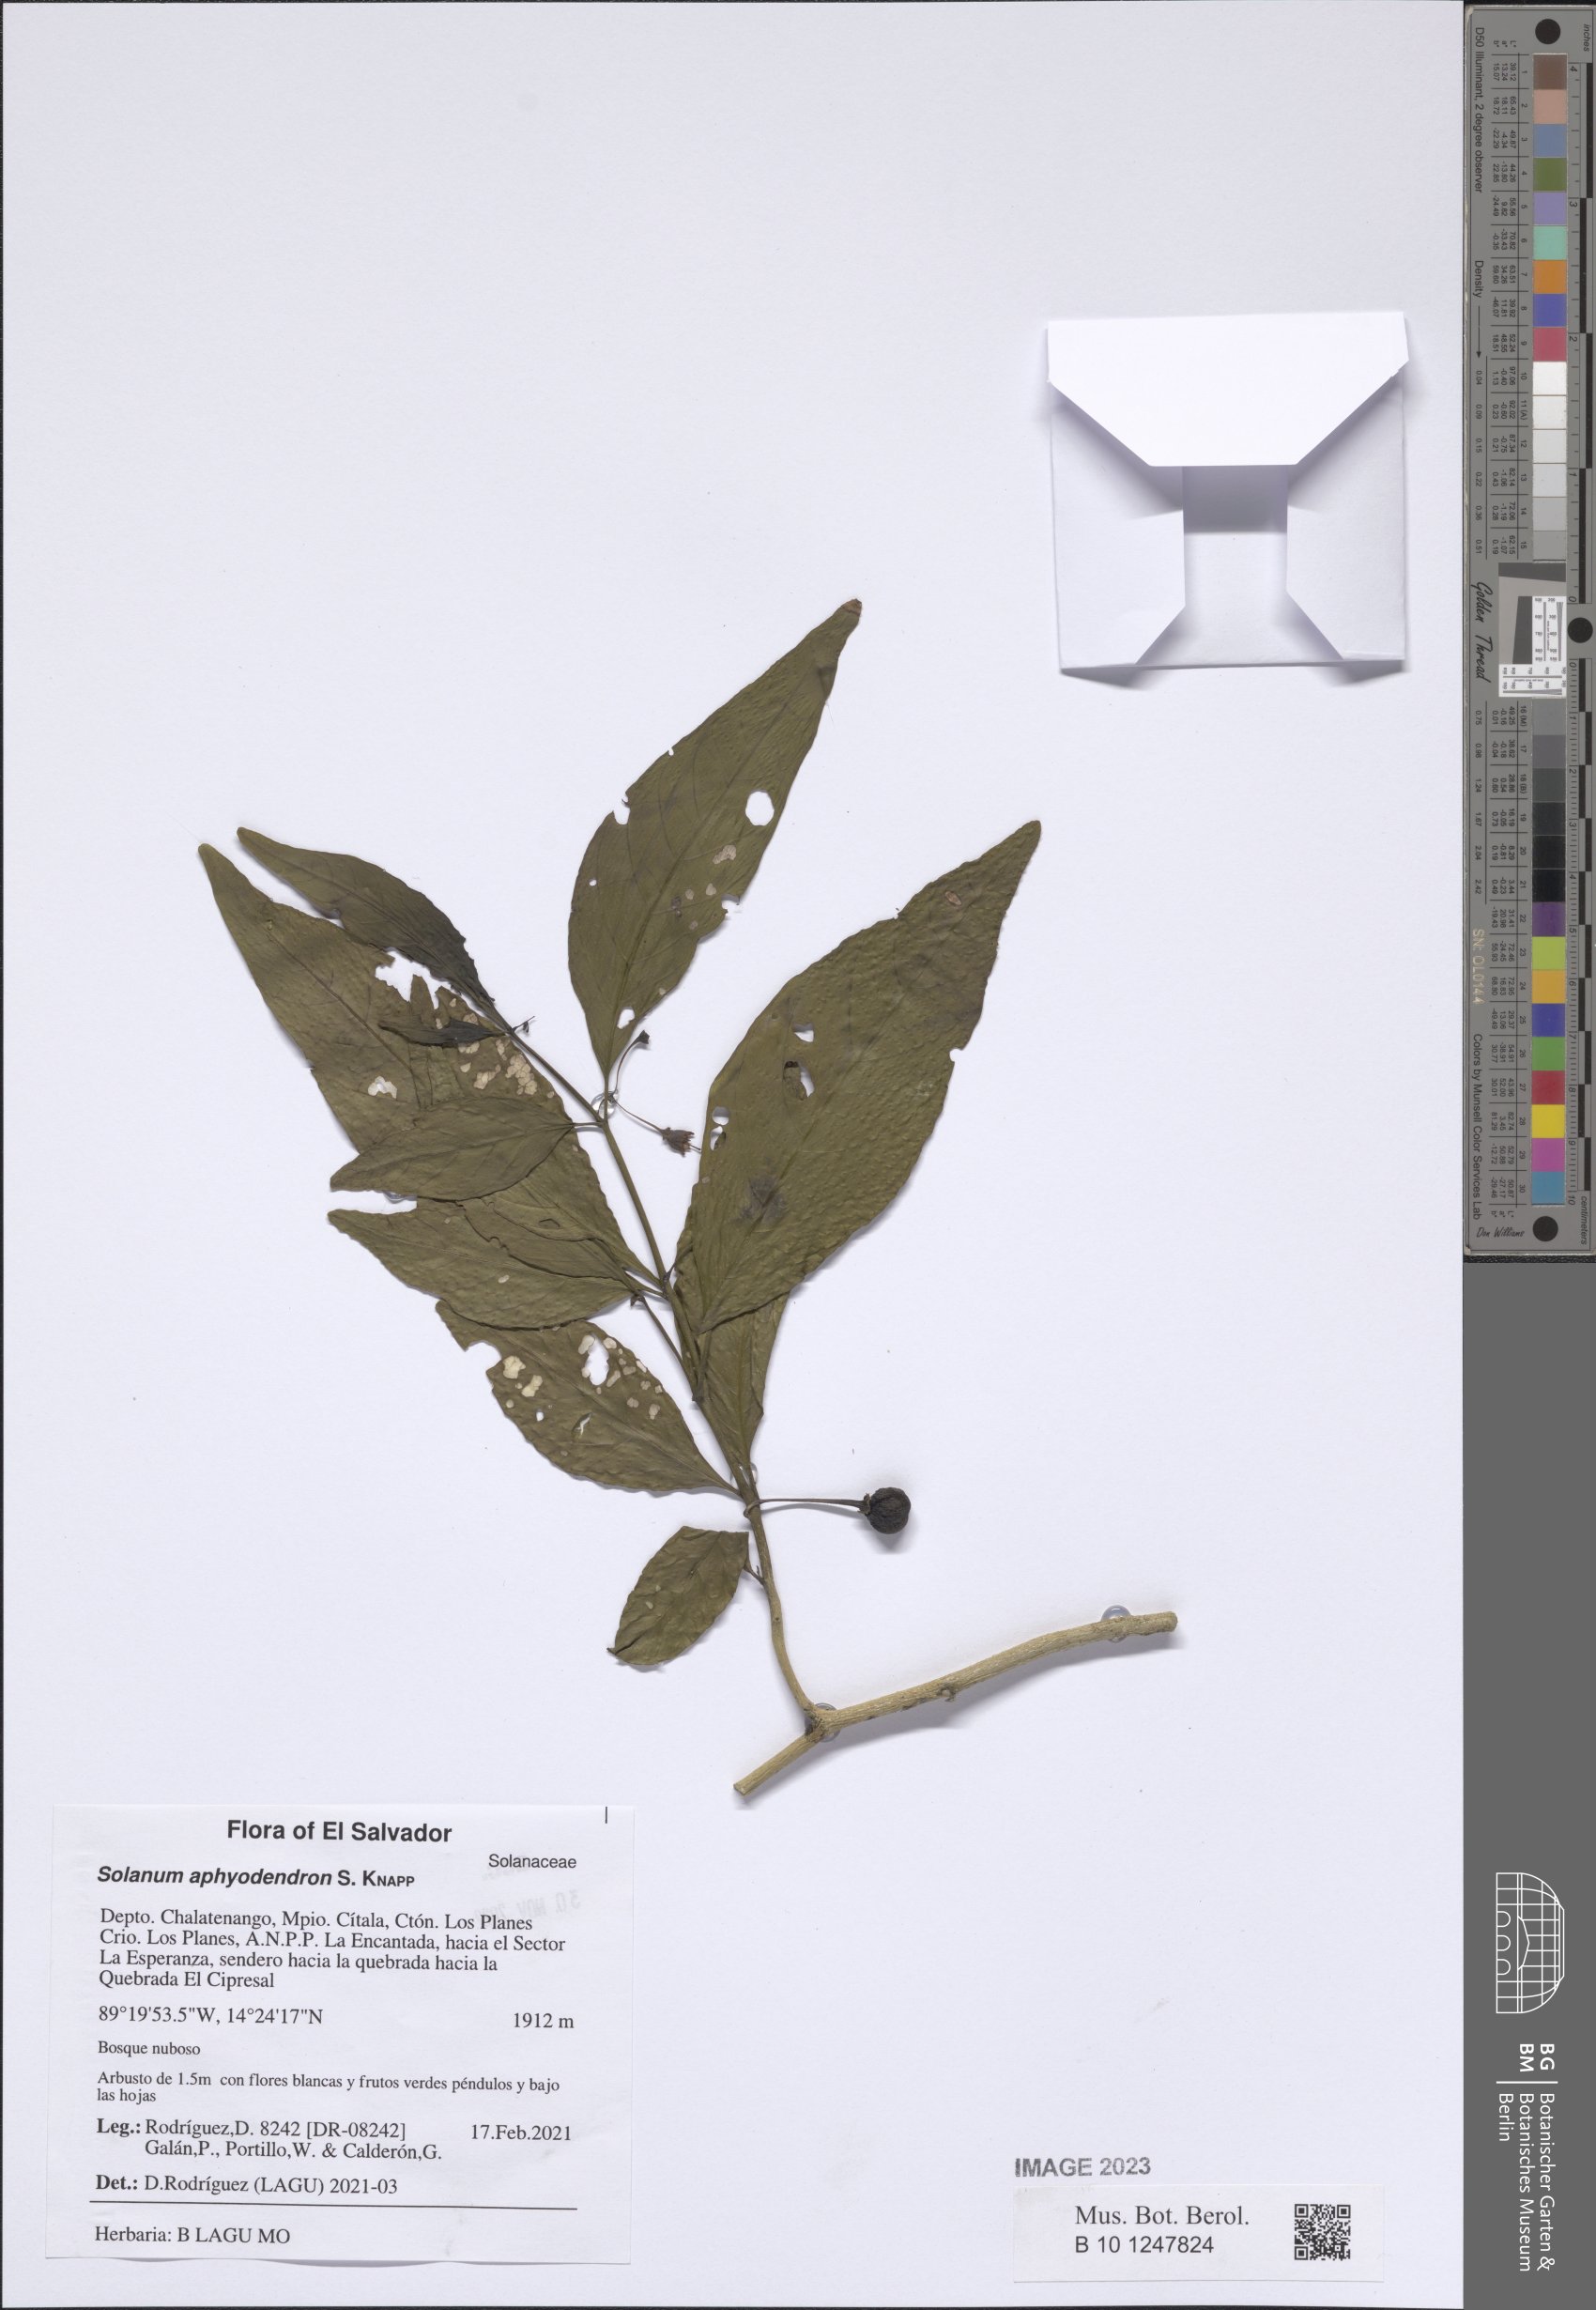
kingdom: Plantae
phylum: Tracheophyta
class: Magnoliopsida
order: Solanales
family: Solanaceae
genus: Solanum
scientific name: Solanum aphyodendron
